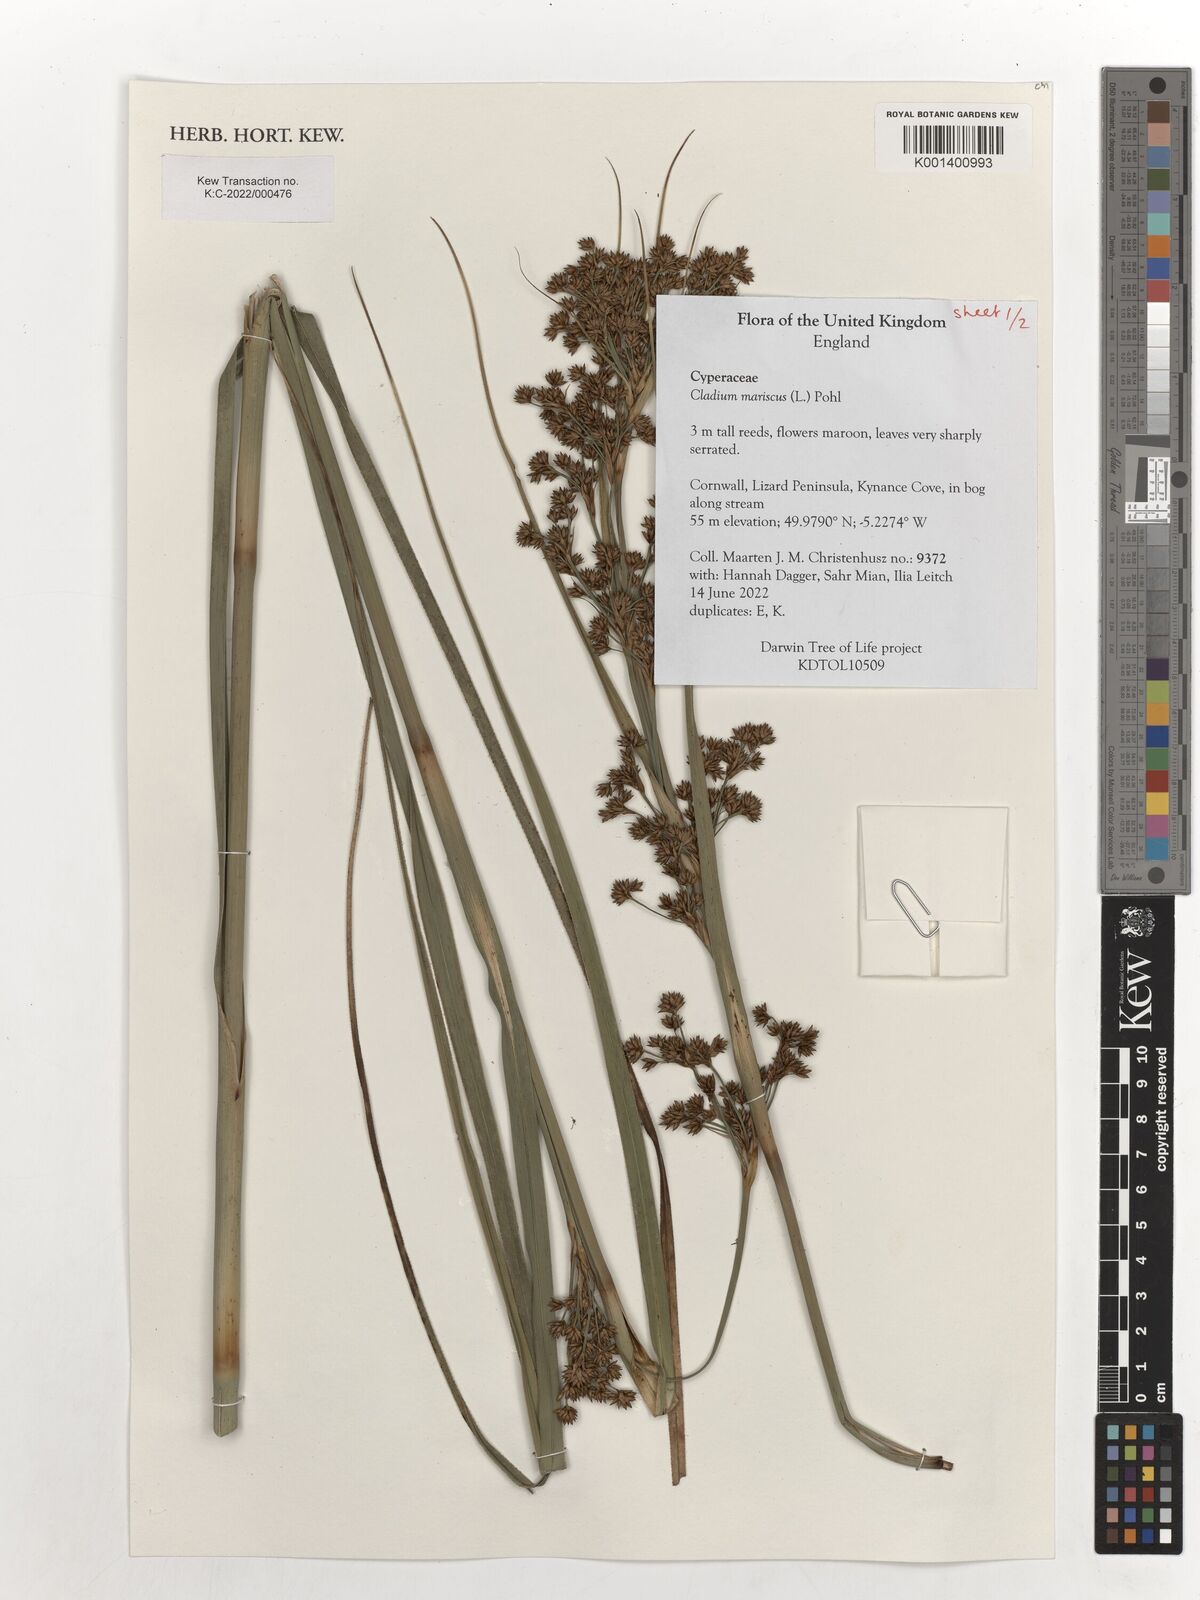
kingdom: Plantae
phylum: Tracheophyta
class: Liliopsida
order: Poales
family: Cyperaceae
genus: Cladium
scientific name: Cladium mariscus
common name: Great fen-sedge
